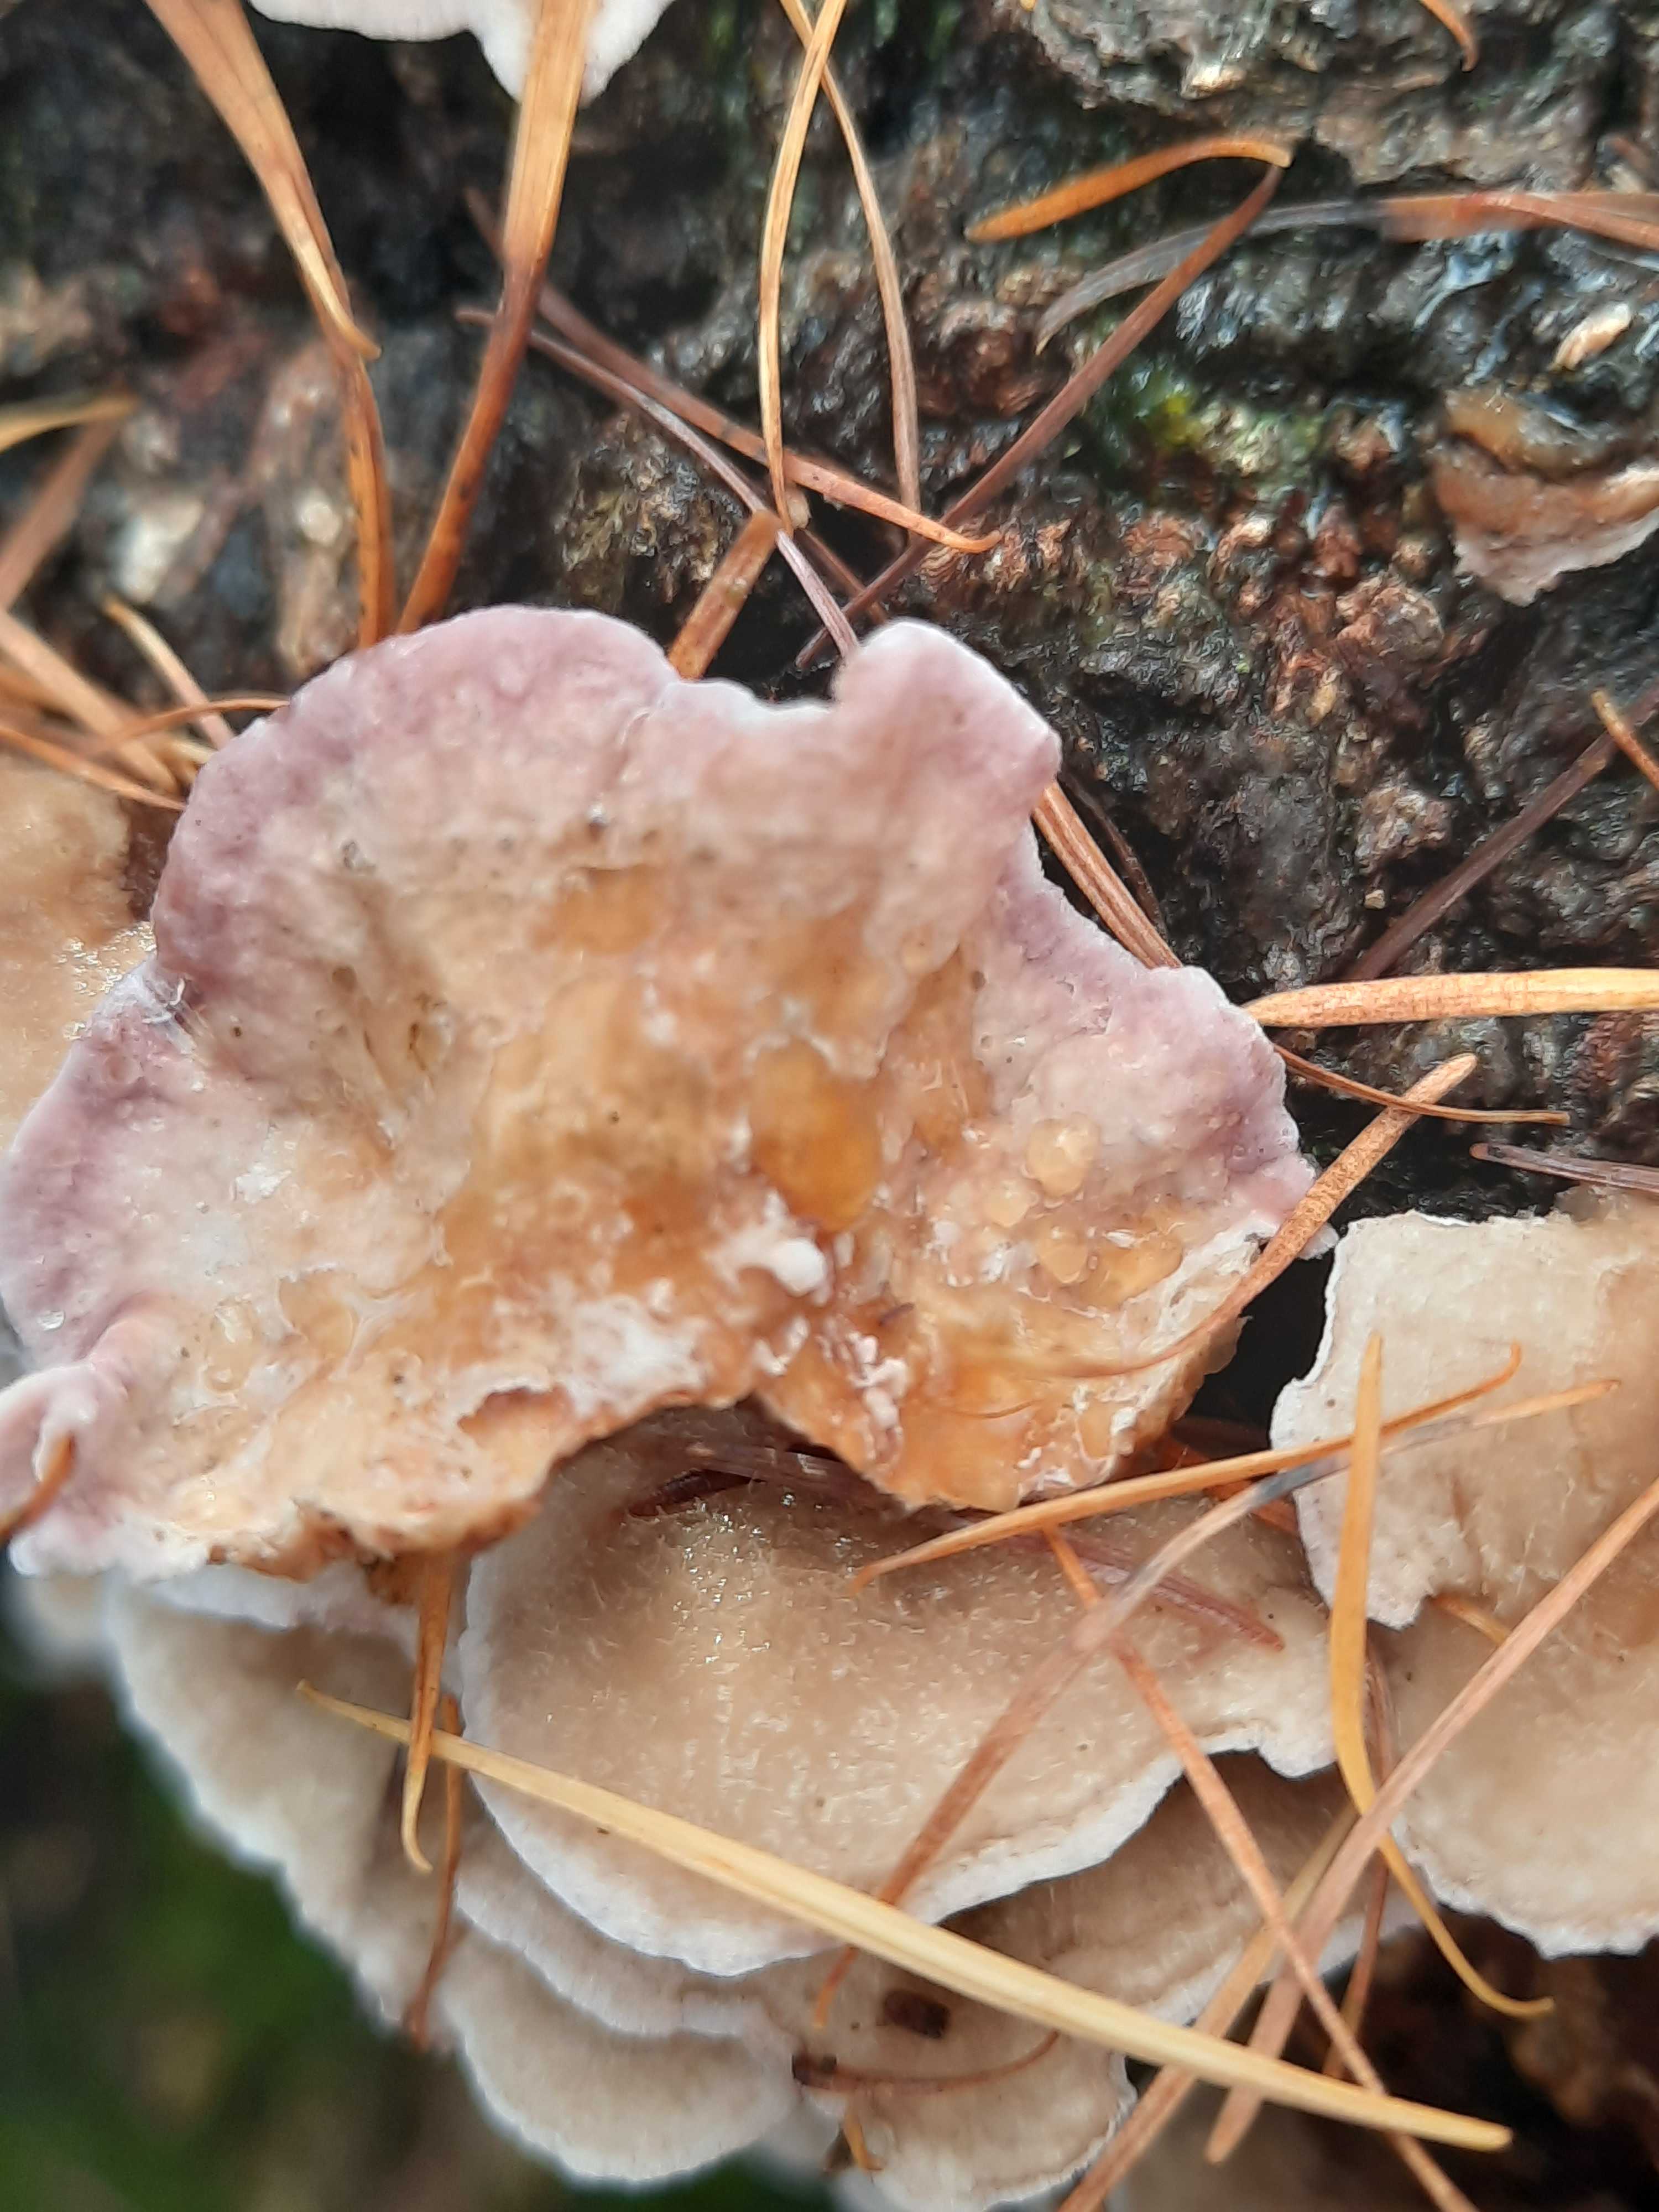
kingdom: Fungi
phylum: Basidiomycota
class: Agaricomycetes
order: Agaricales
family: Cyphellaceae
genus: Chondrostereum
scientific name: Chondrostereum purpureum
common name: purpurlædersvamp
